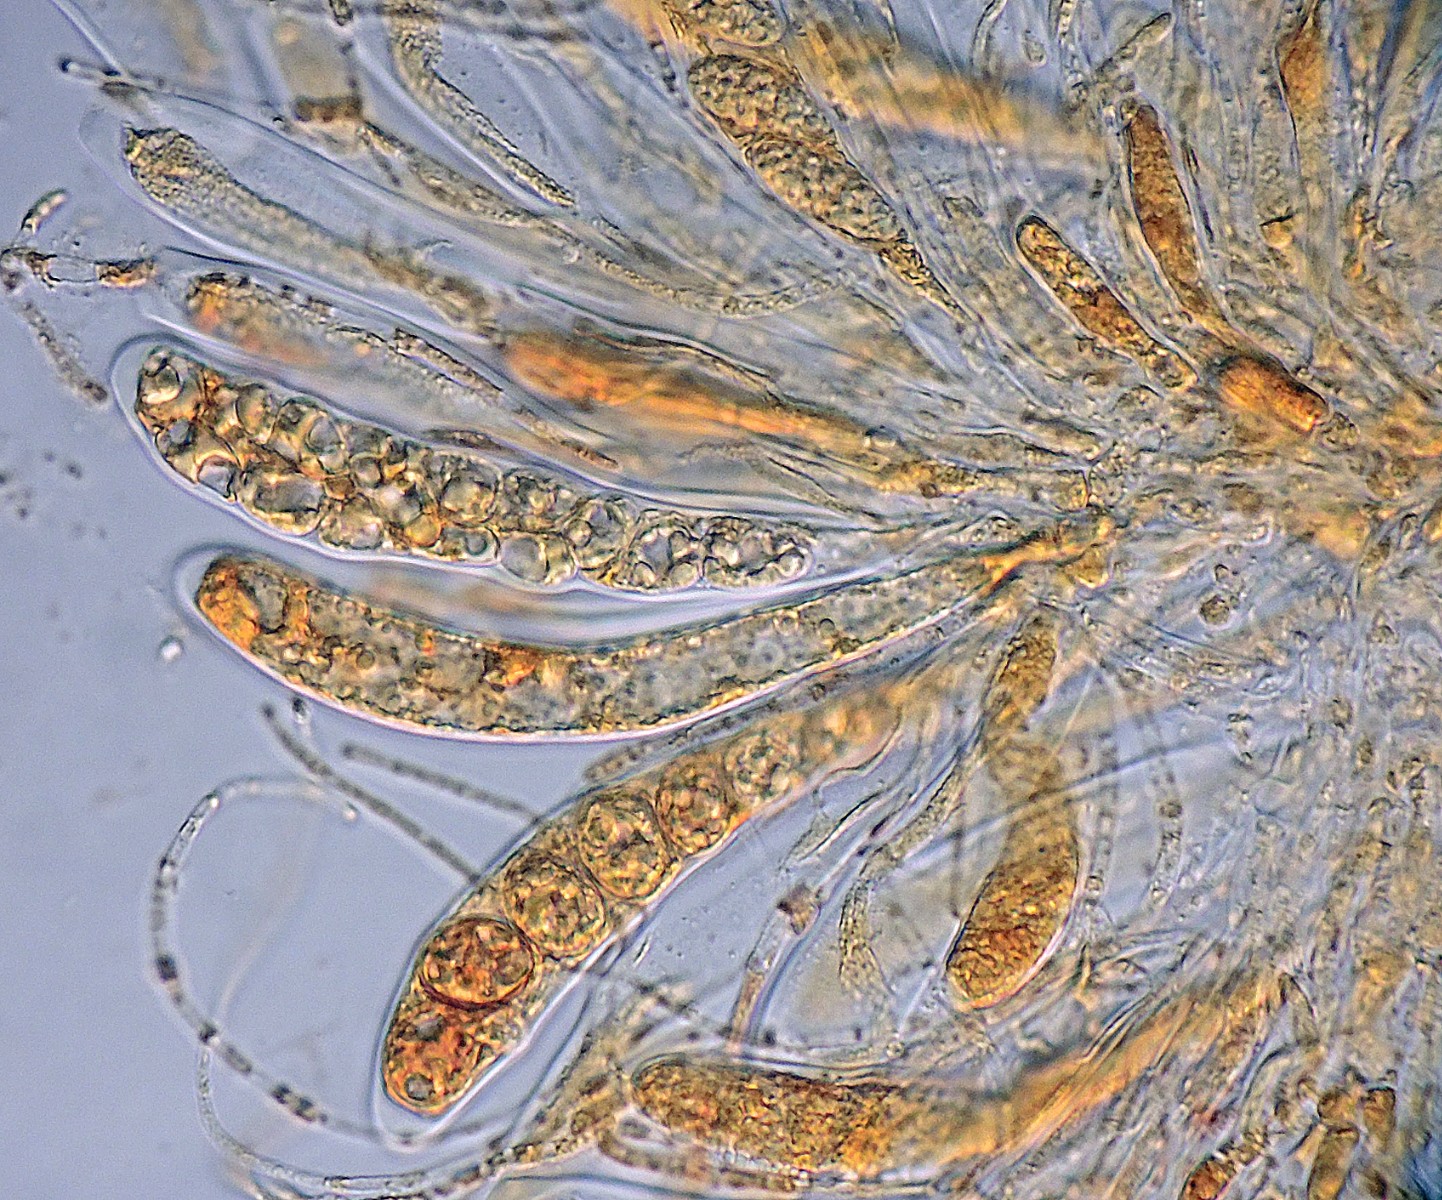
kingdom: Fungi
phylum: Ascomycota
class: Leotiomycetes
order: Leotiales
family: Mniaeciaceae
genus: Mniaecia
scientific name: Mniaecia nivea
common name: Calycina nivea
